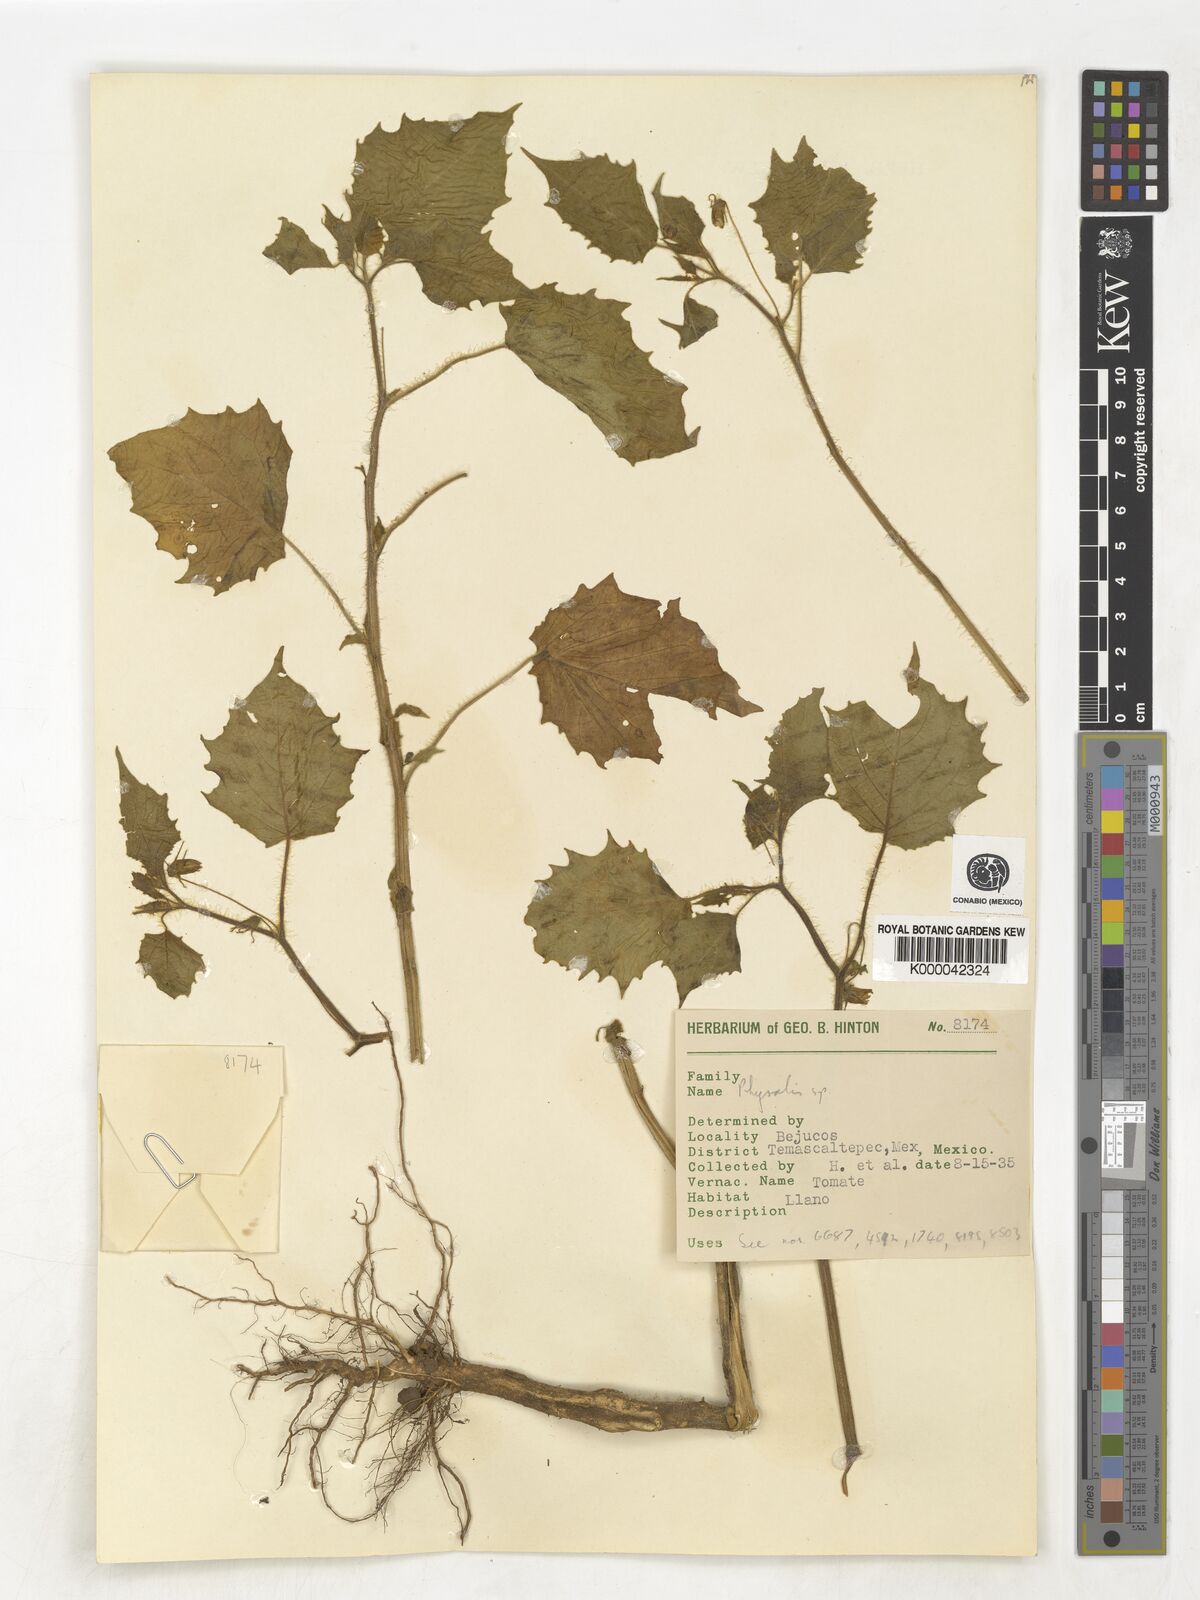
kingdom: Plantae
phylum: Tracheophyta
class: Magnoliopsida
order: Solanales
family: Solanaceae
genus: Physalis
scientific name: Physalis
